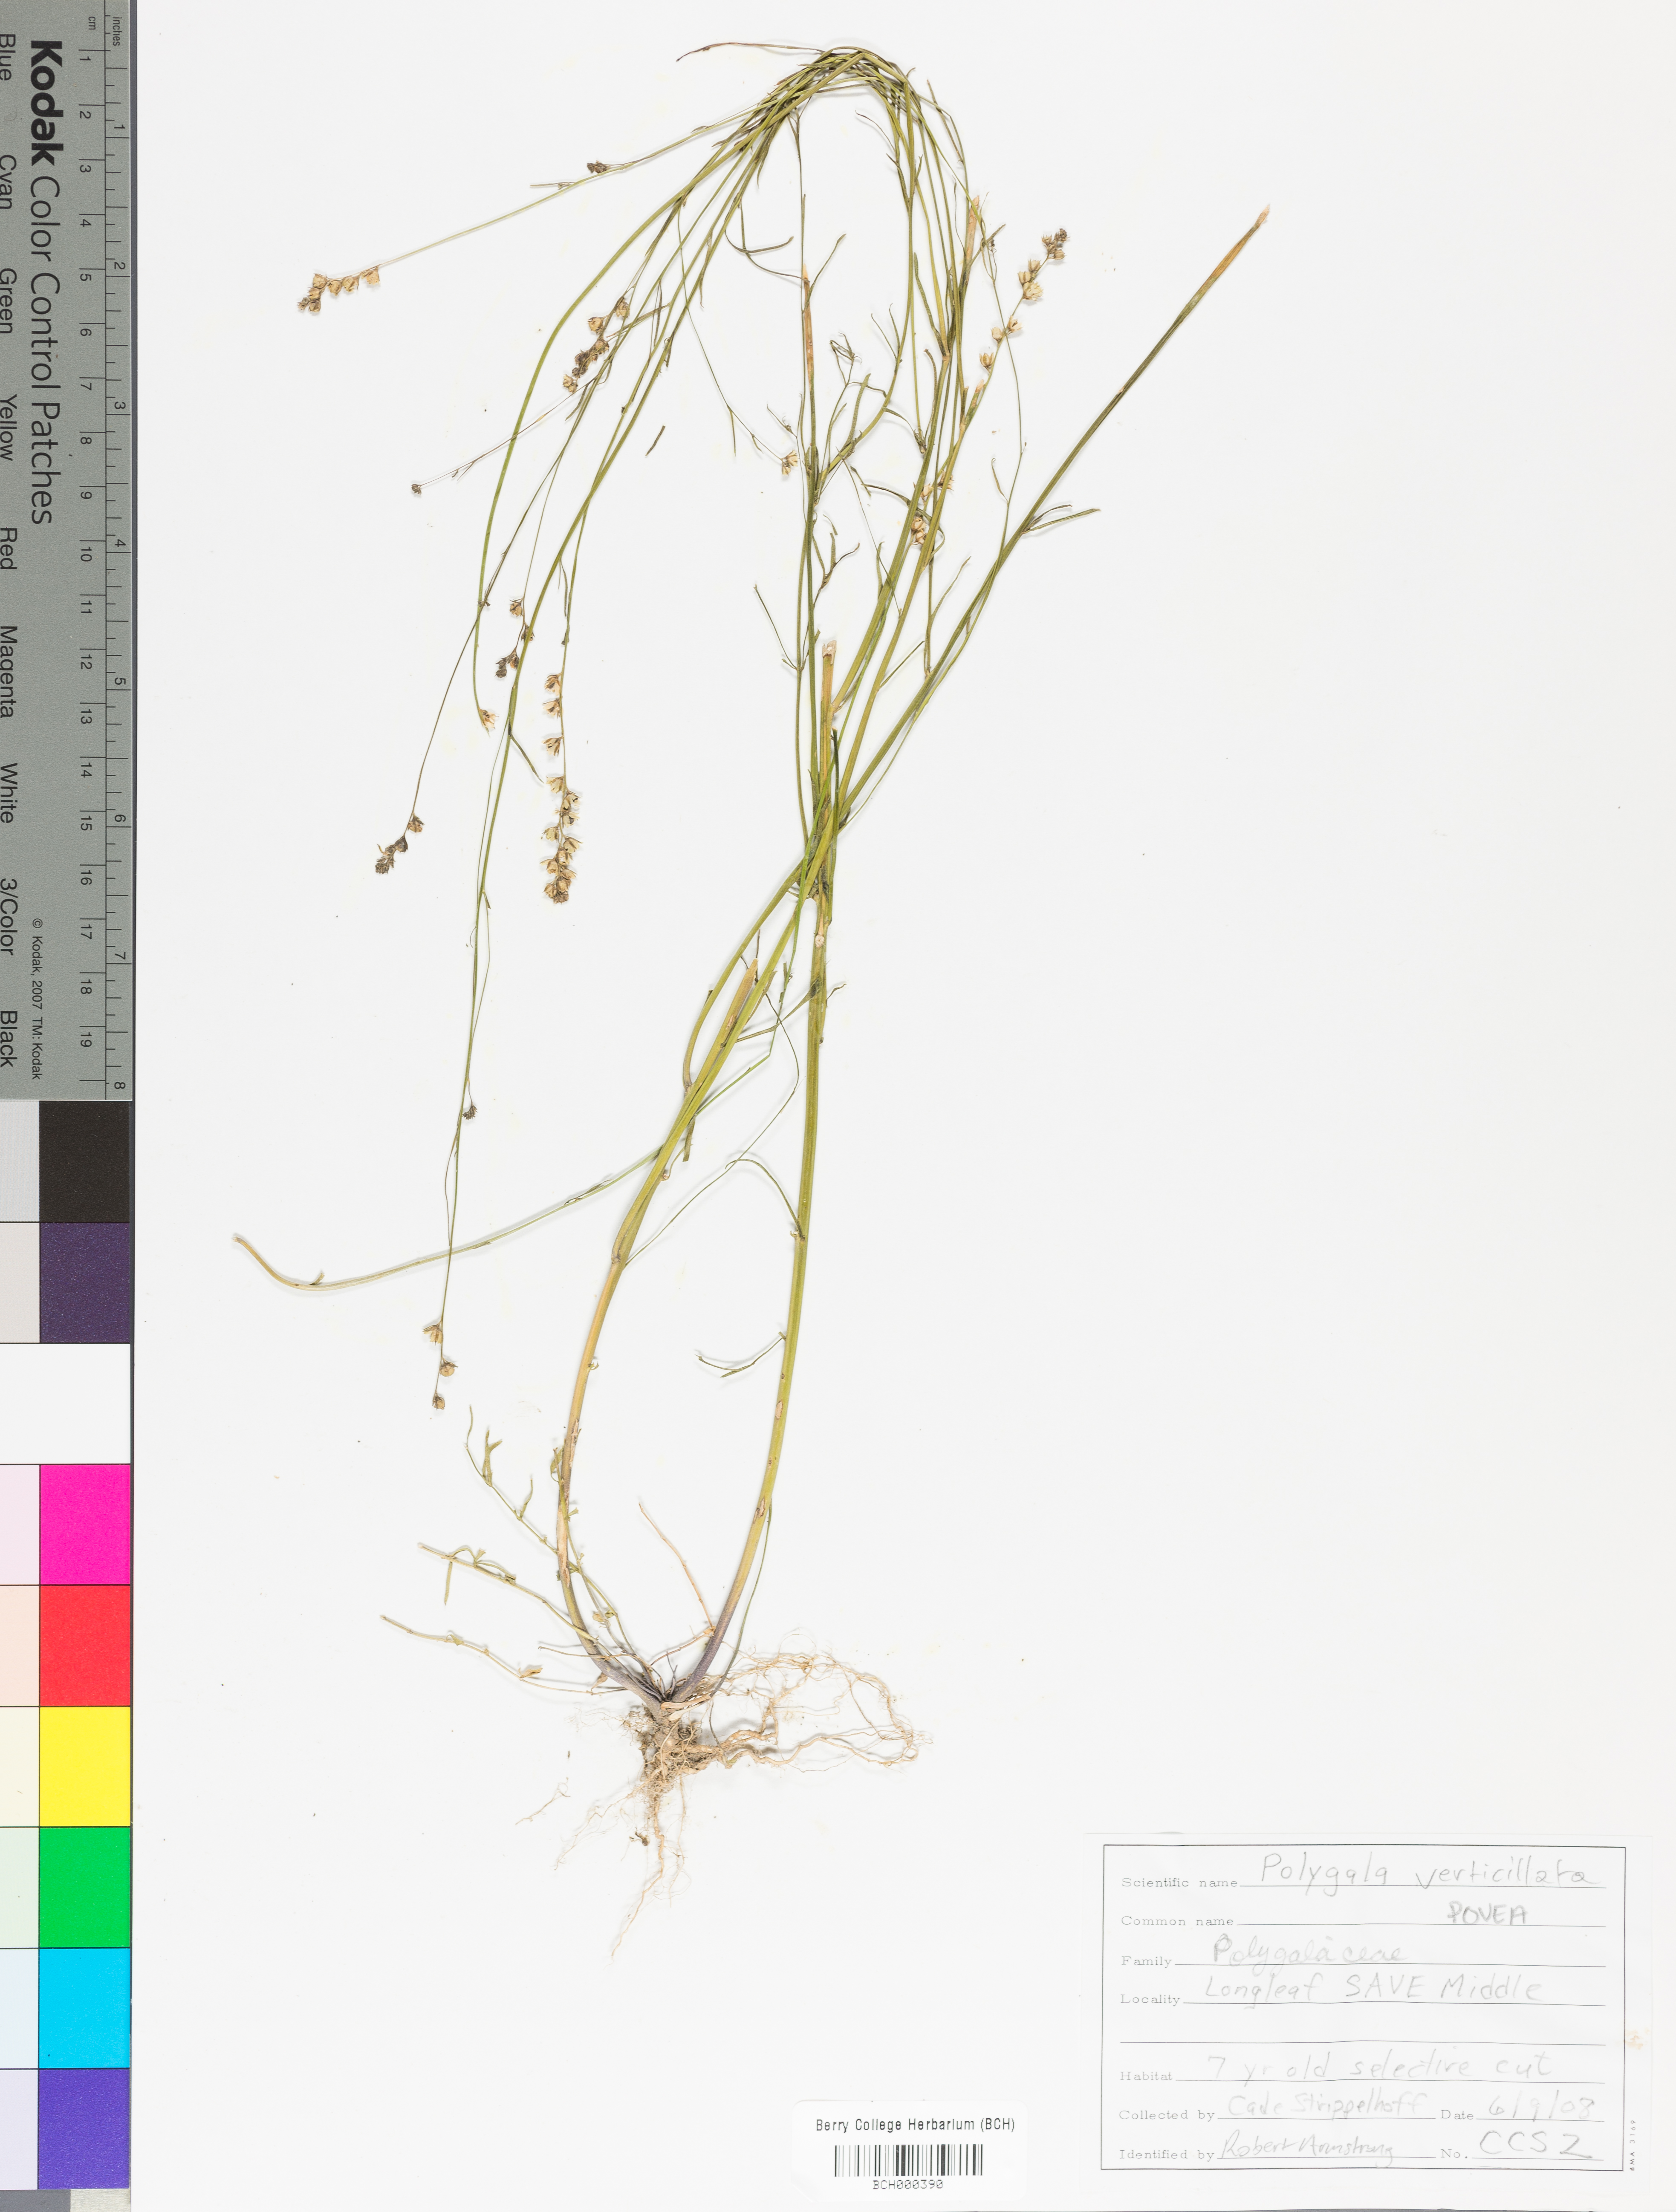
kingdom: Plantae
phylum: Tracheophyta
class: Magnoliopsida
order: Fabales
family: Polygalaceae
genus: Polygala
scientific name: Polygala ambigua
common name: Alternate milkwort
